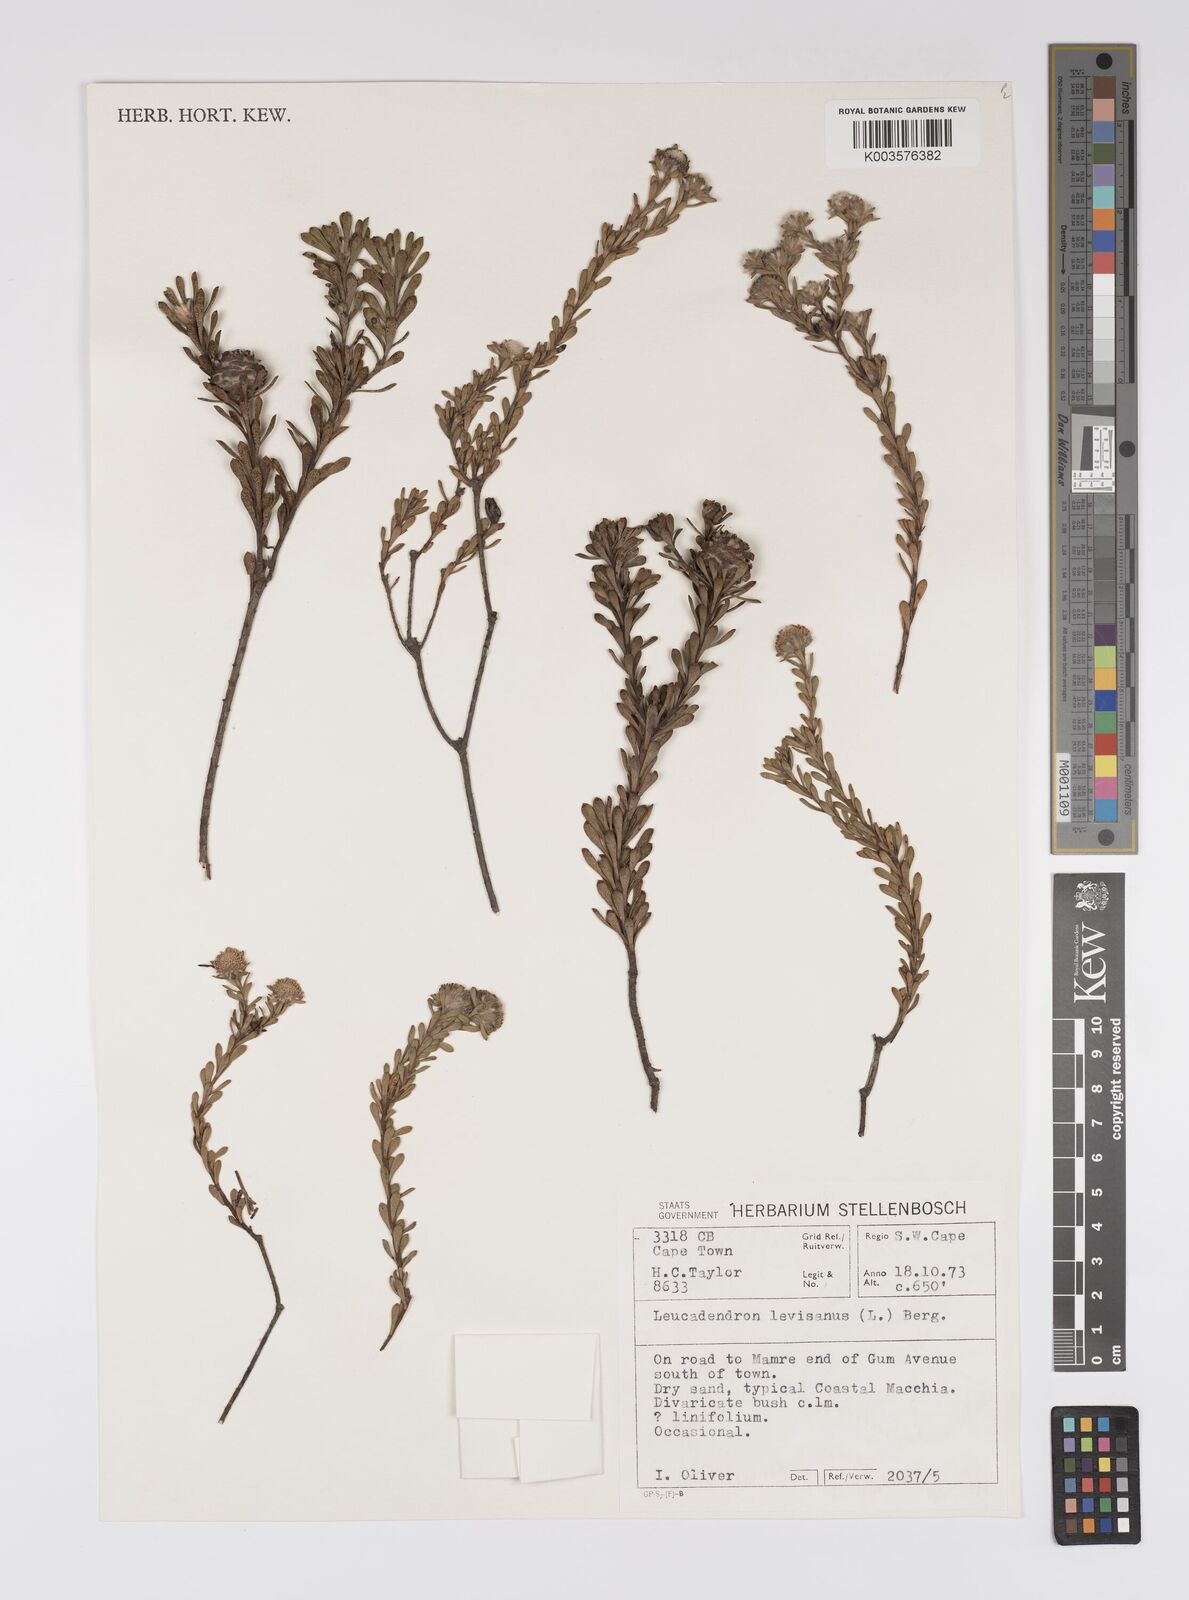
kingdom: Plantae
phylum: Tracheophyta
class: Magnoliopsida
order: Proteales
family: Proteaceae
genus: Leucadendron
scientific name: Leucadendron levisanus
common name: Cape flats conebush
